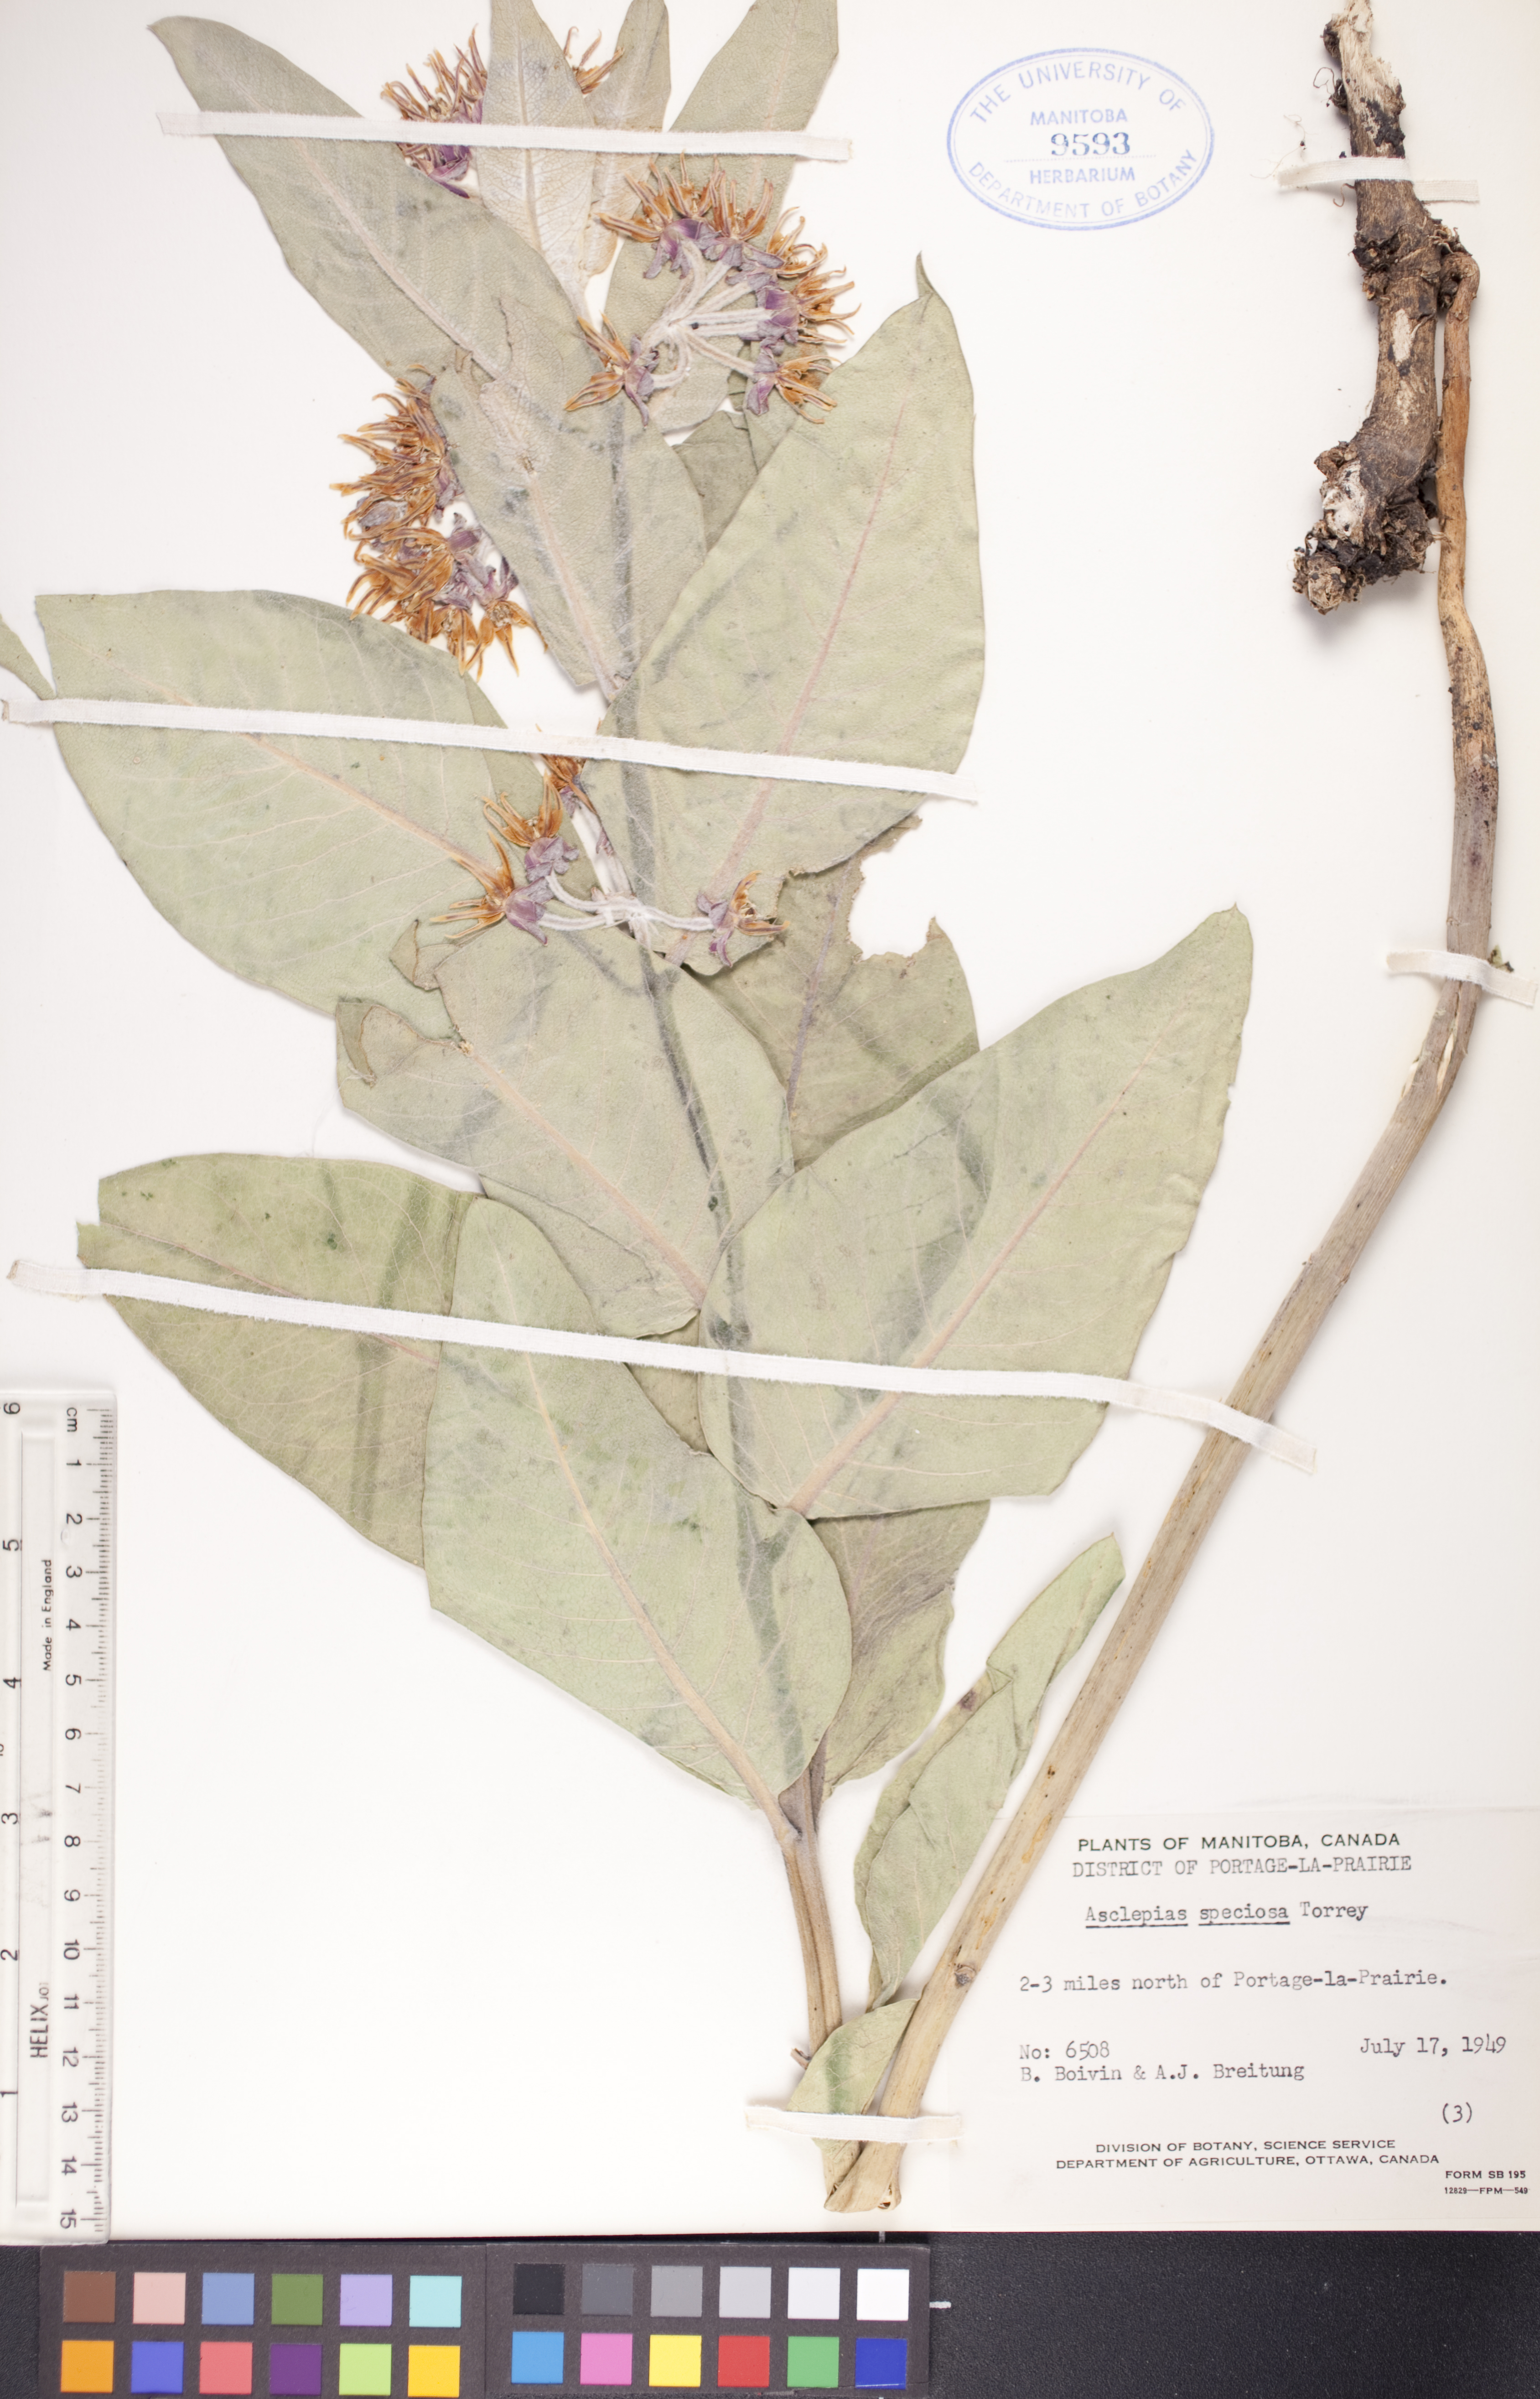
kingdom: Plantae
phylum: Tracheophyta
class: Magnoliopsida
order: Gentianales
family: Apocynaceae
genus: Asclepias
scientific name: Asclepias speciosa
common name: Showy milkweed
